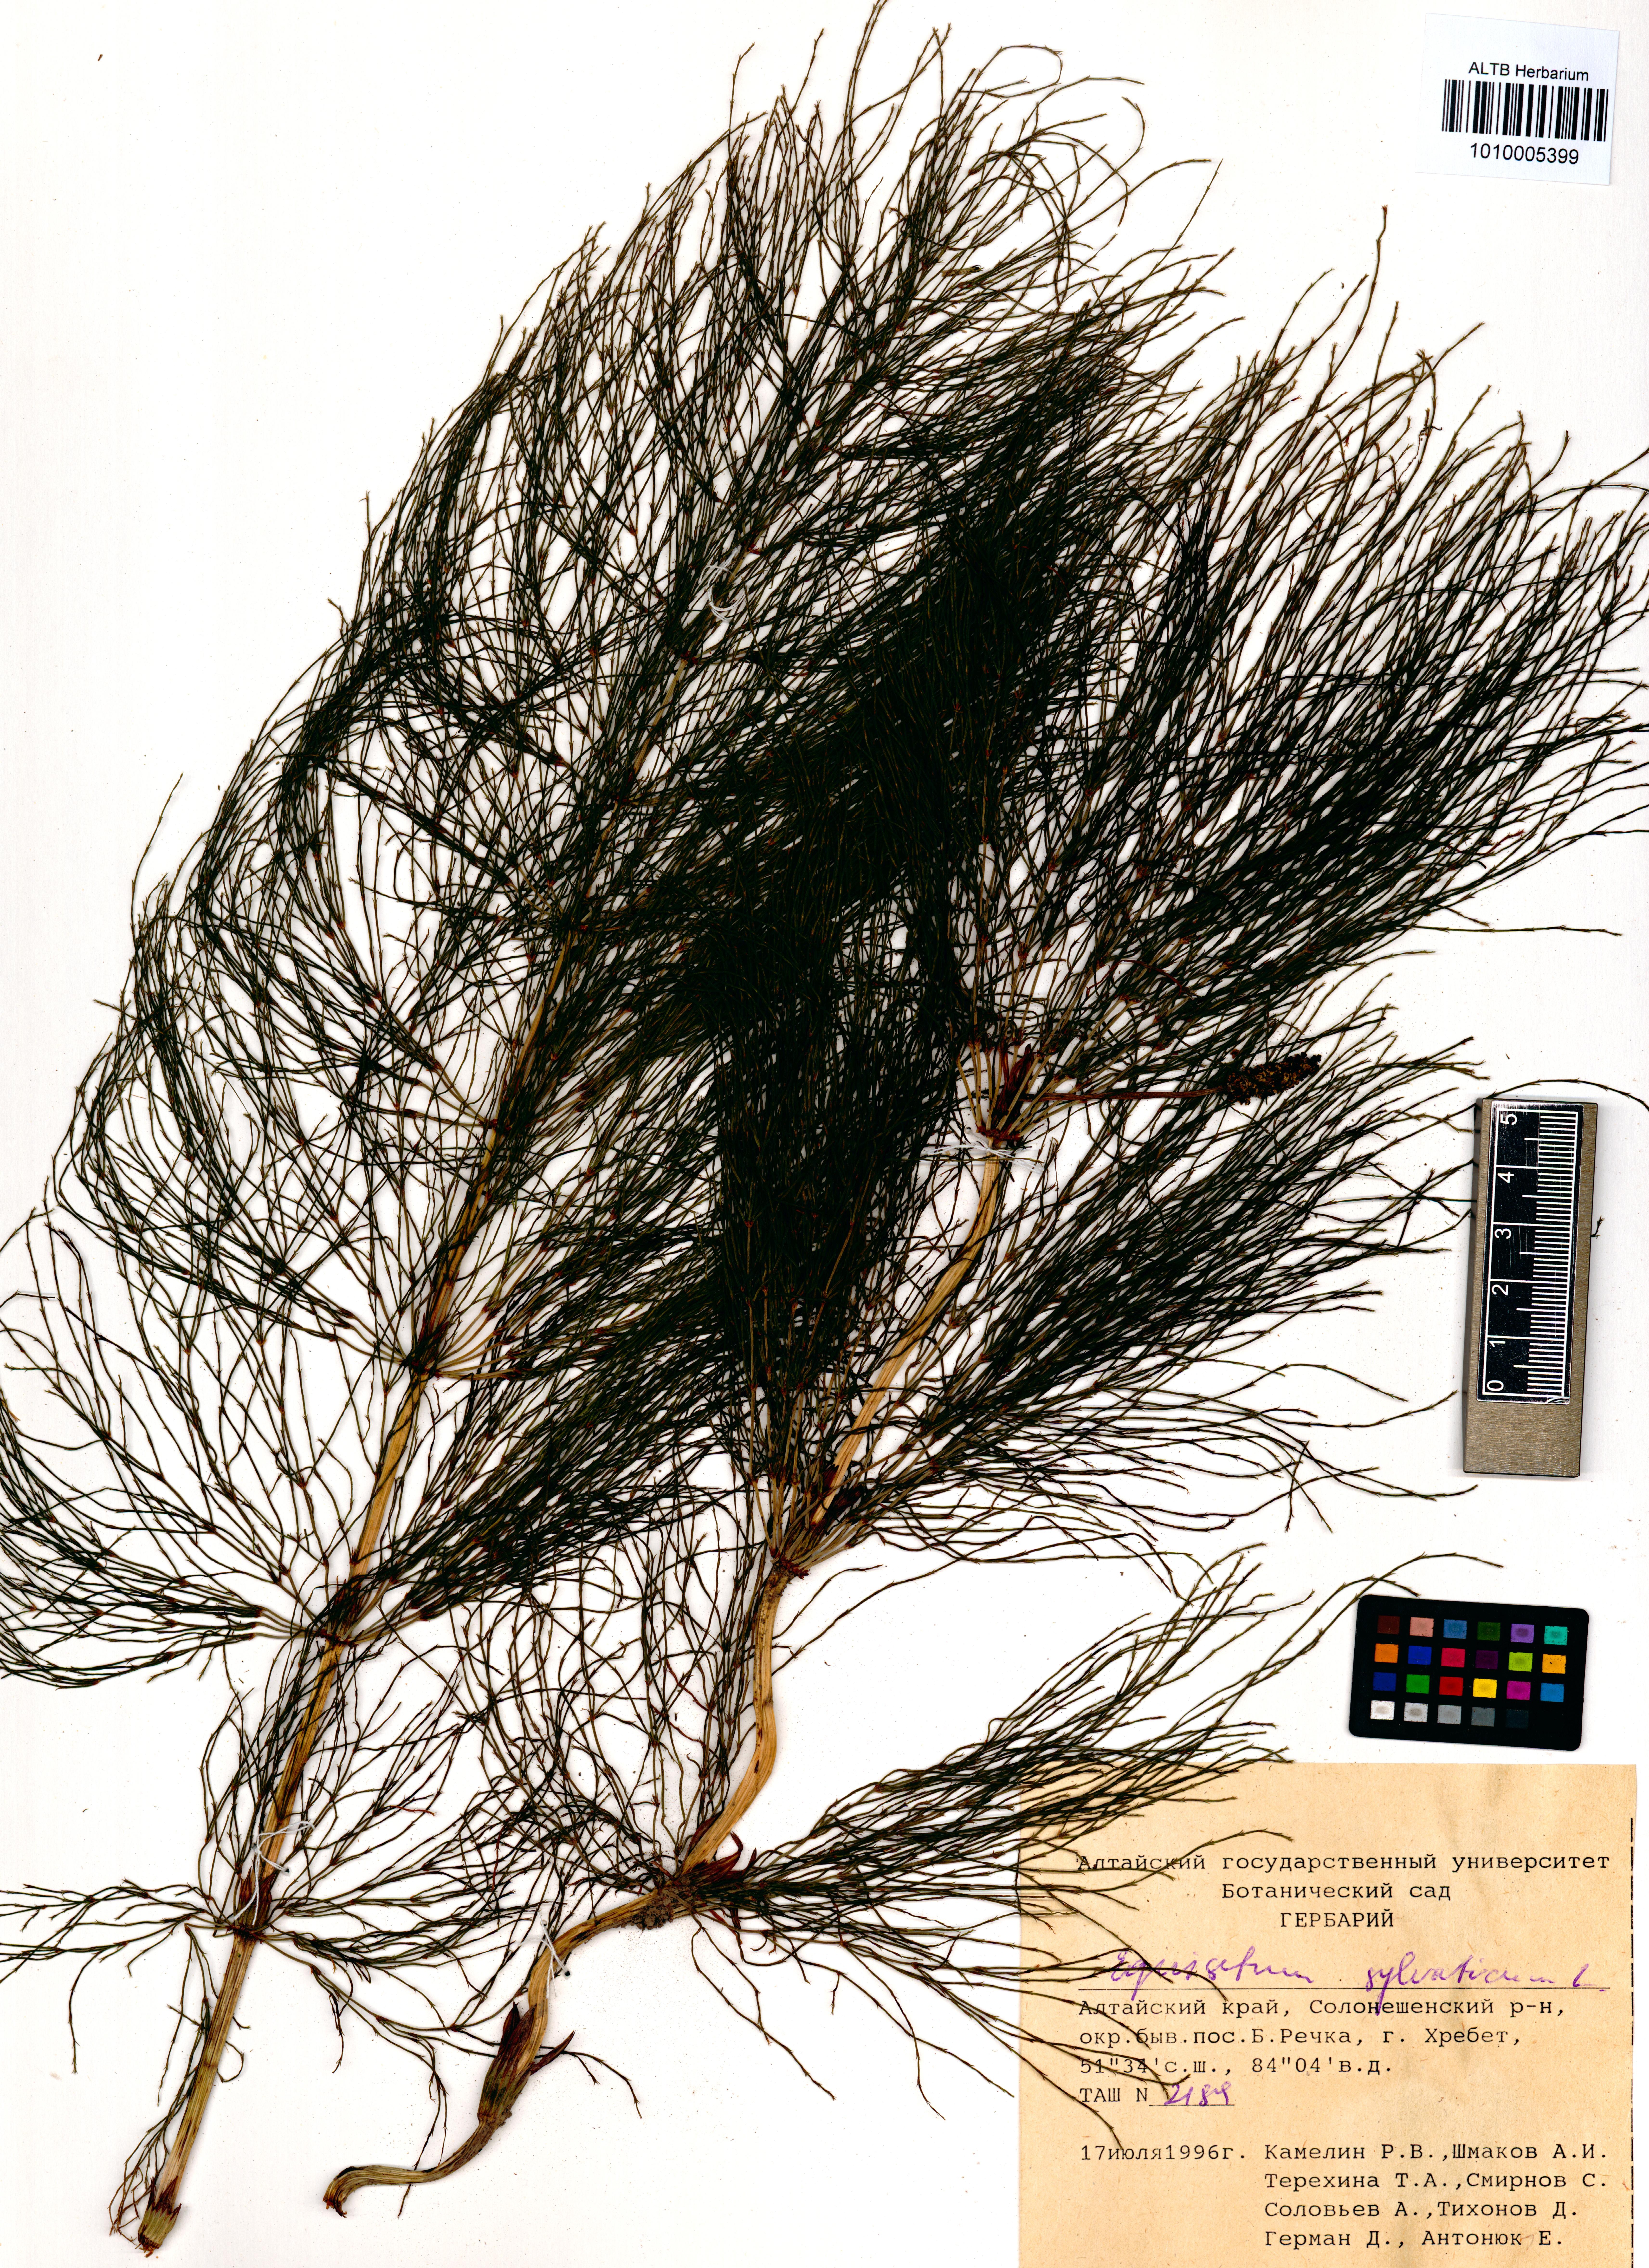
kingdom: Plantae
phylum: Tracheophyta
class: Polypodiopsida
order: Equisetales
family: Equisetaceae
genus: Equisetum
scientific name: Equisetum sylvaticum
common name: Wood horsetail
